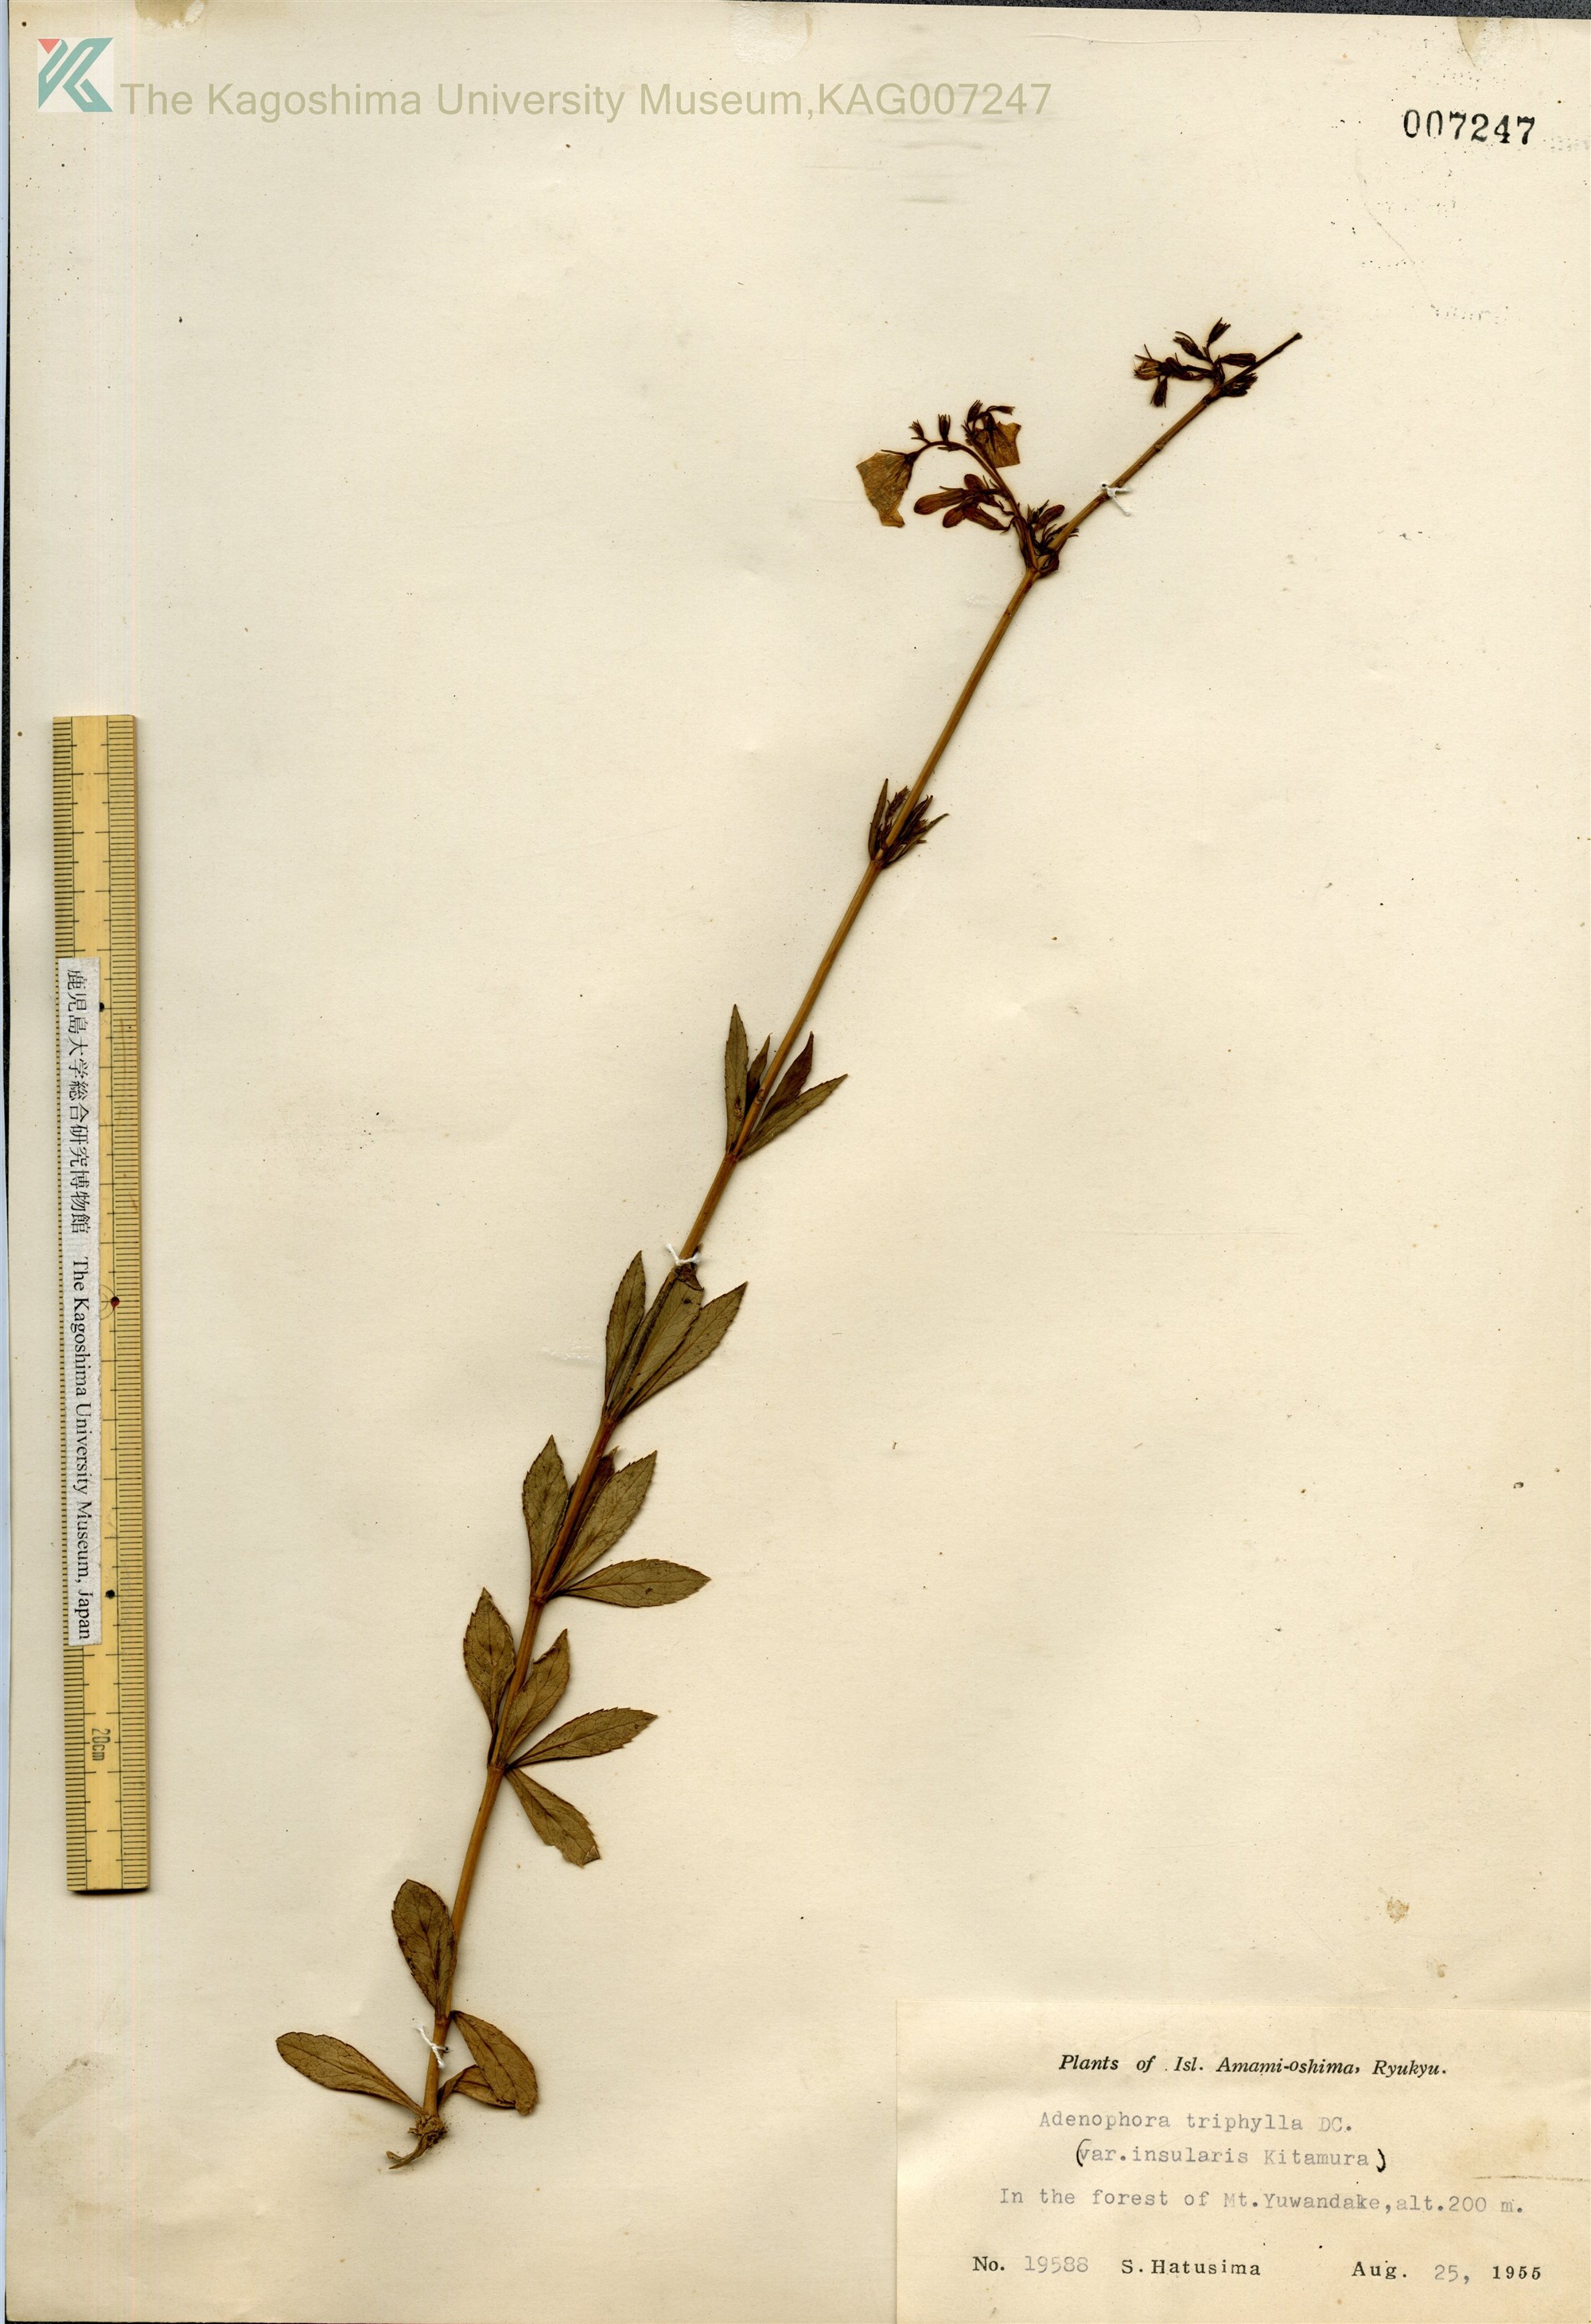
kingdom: Plantae
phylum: Tracheophyta
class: Magnoliopsida
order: Asterales
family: Campanulaceae
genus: Adenophora
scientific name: Adenophora tashiroi
